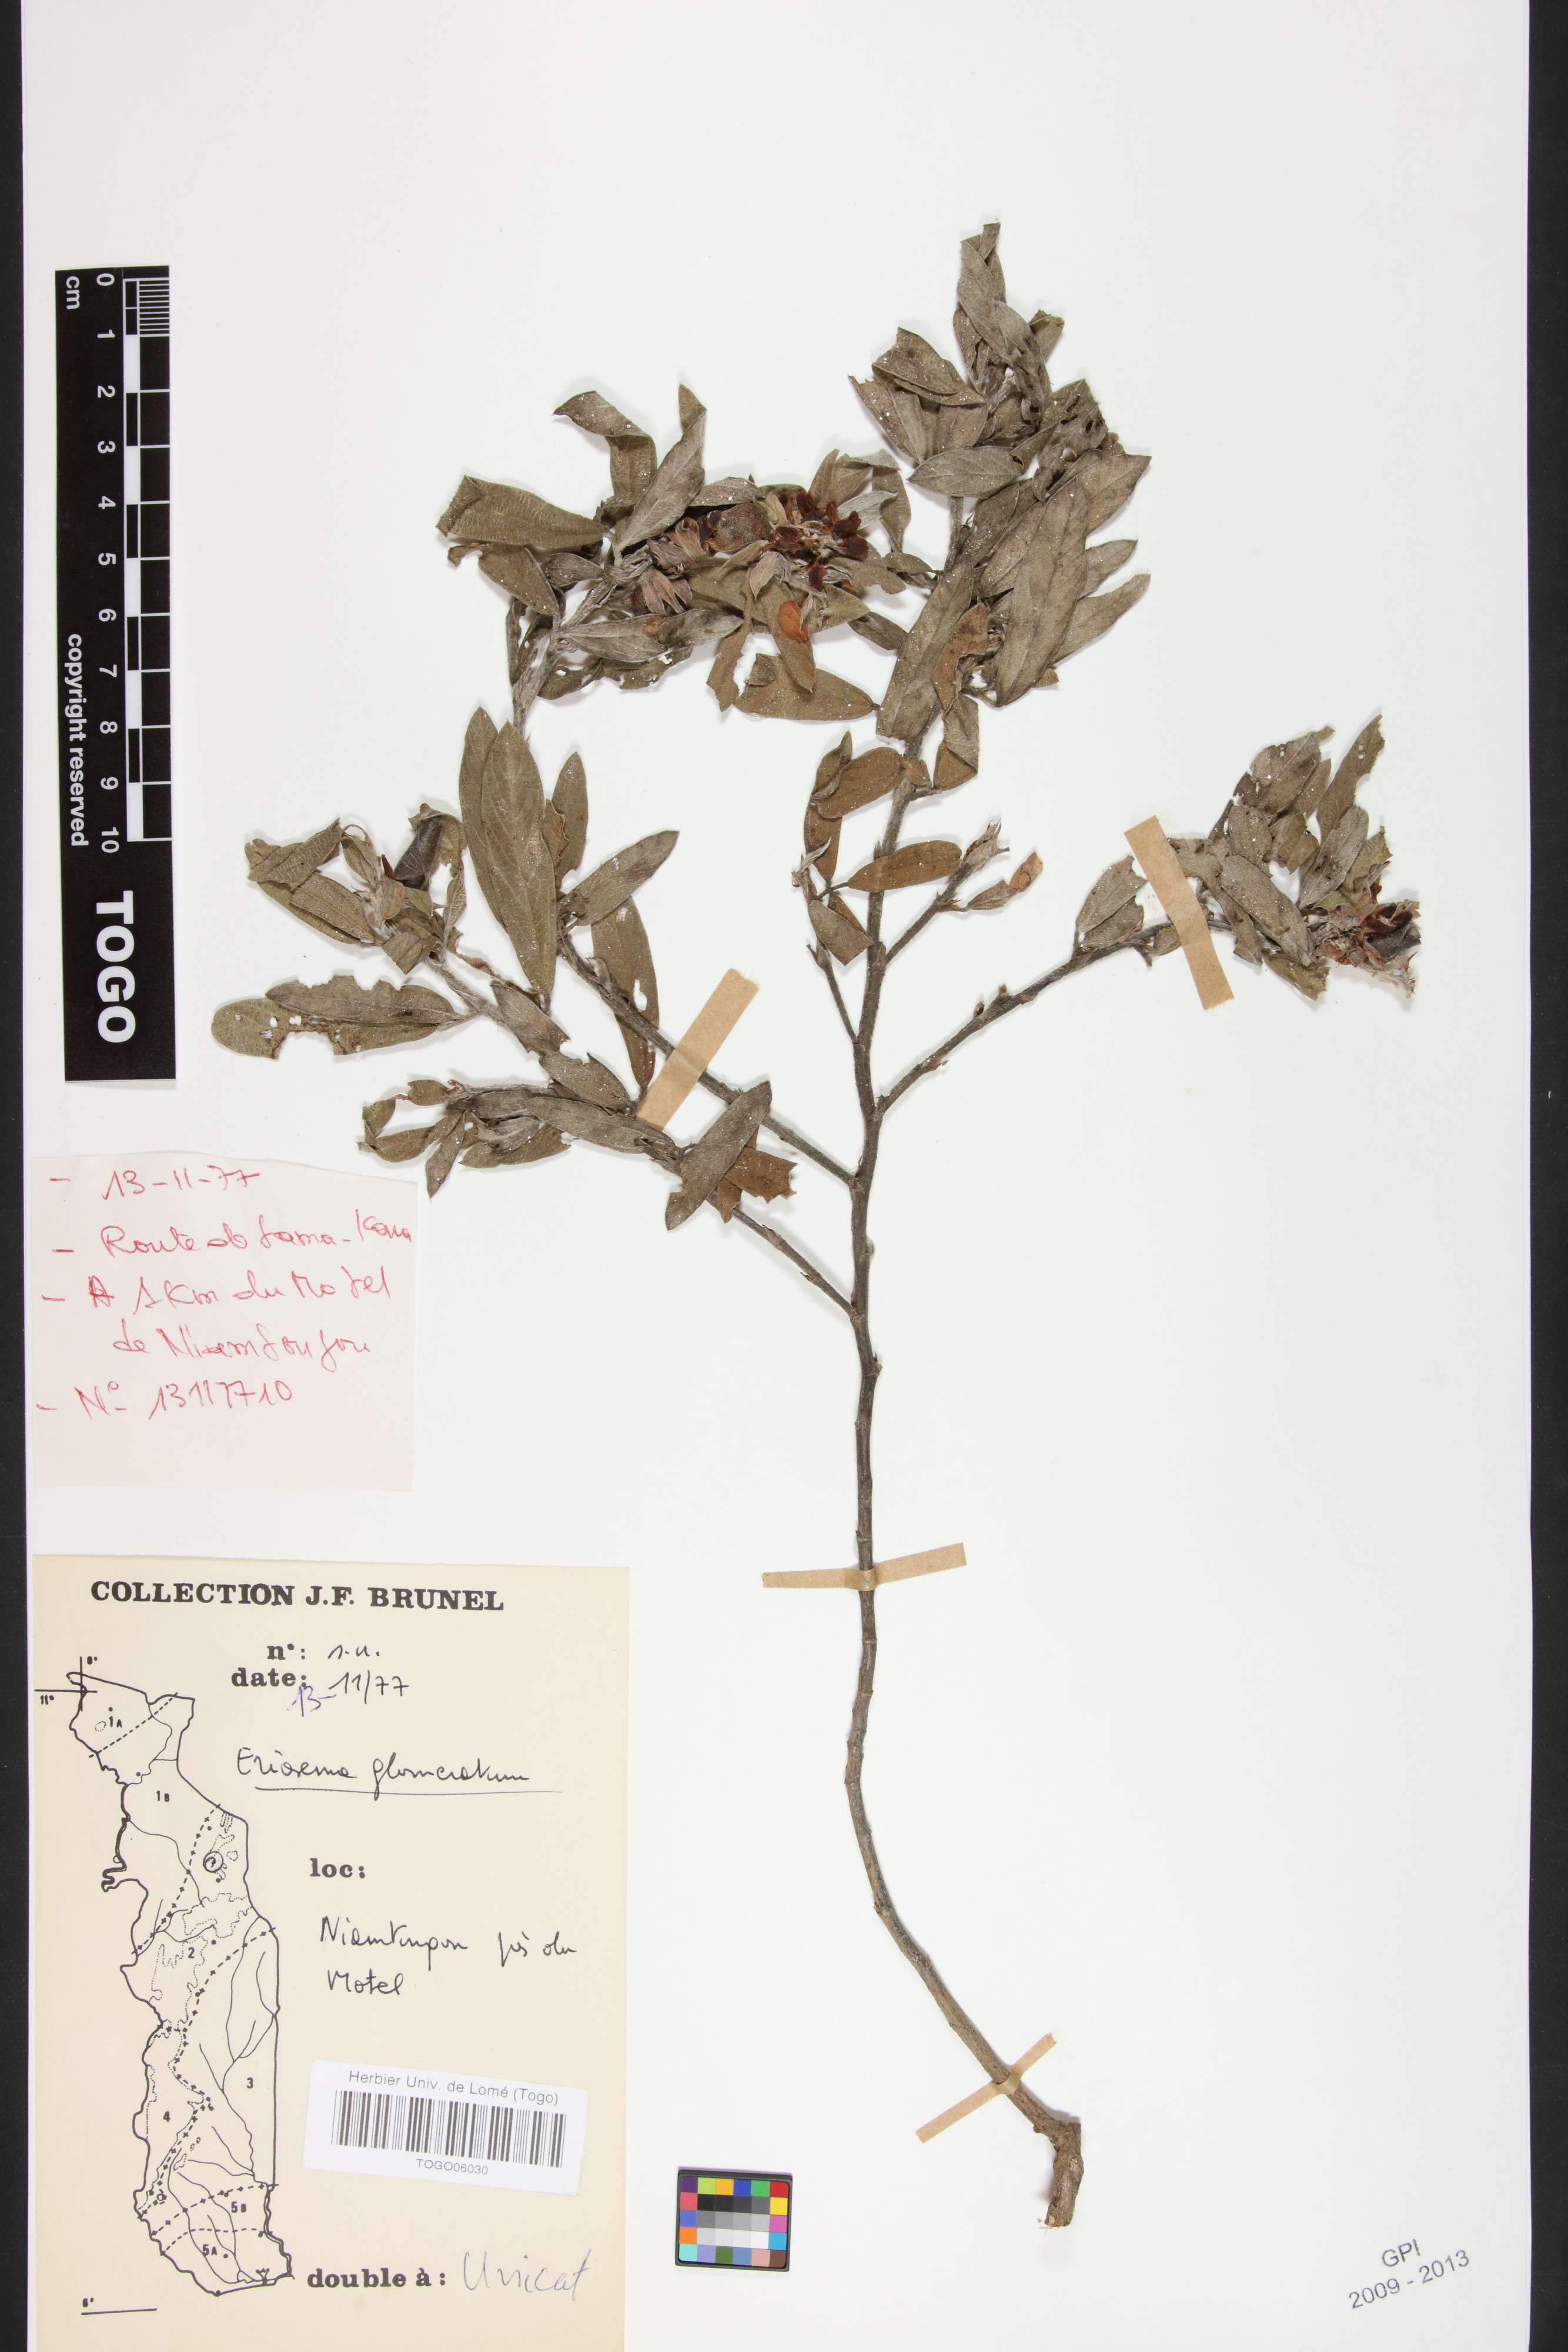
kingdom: Plantae
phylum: Tracheophyta
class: Magnoliopsida
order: Fabales
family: Fabaceae
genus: Eriosema
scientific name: Eriosema glomeratum
